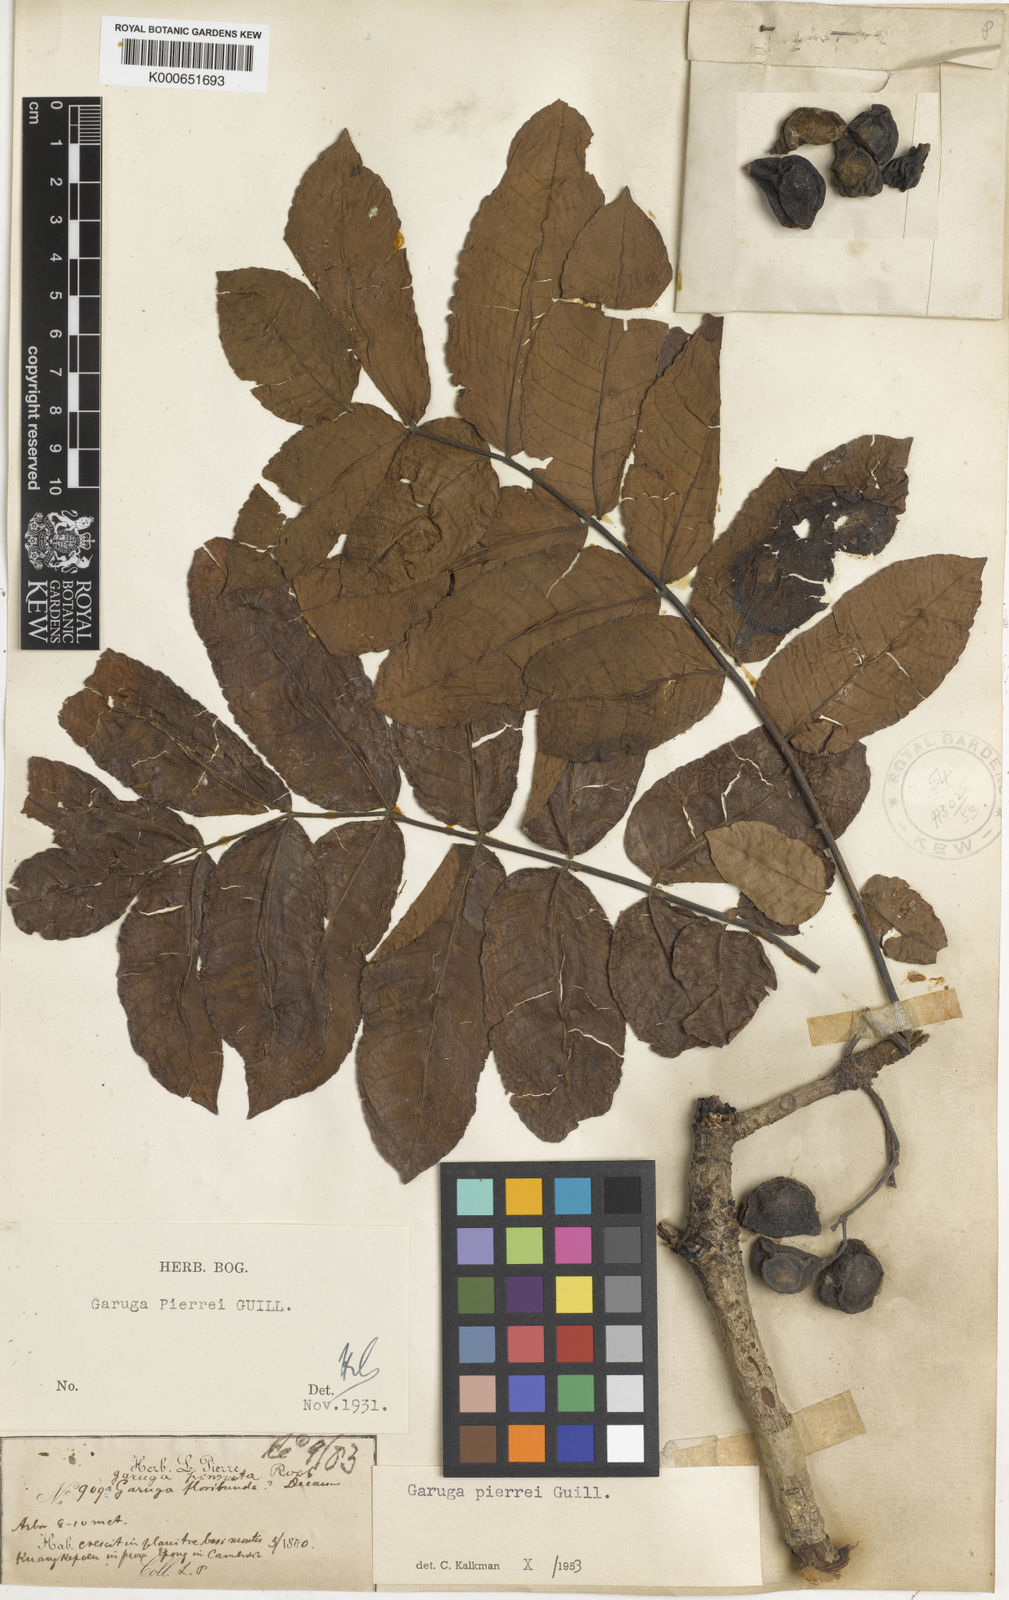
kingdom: Plantae
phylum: Tracheophyta
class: Magnoliopsida
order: Sapindales
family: Burseraceae
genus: Garuga
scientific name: Garuga pierrei
